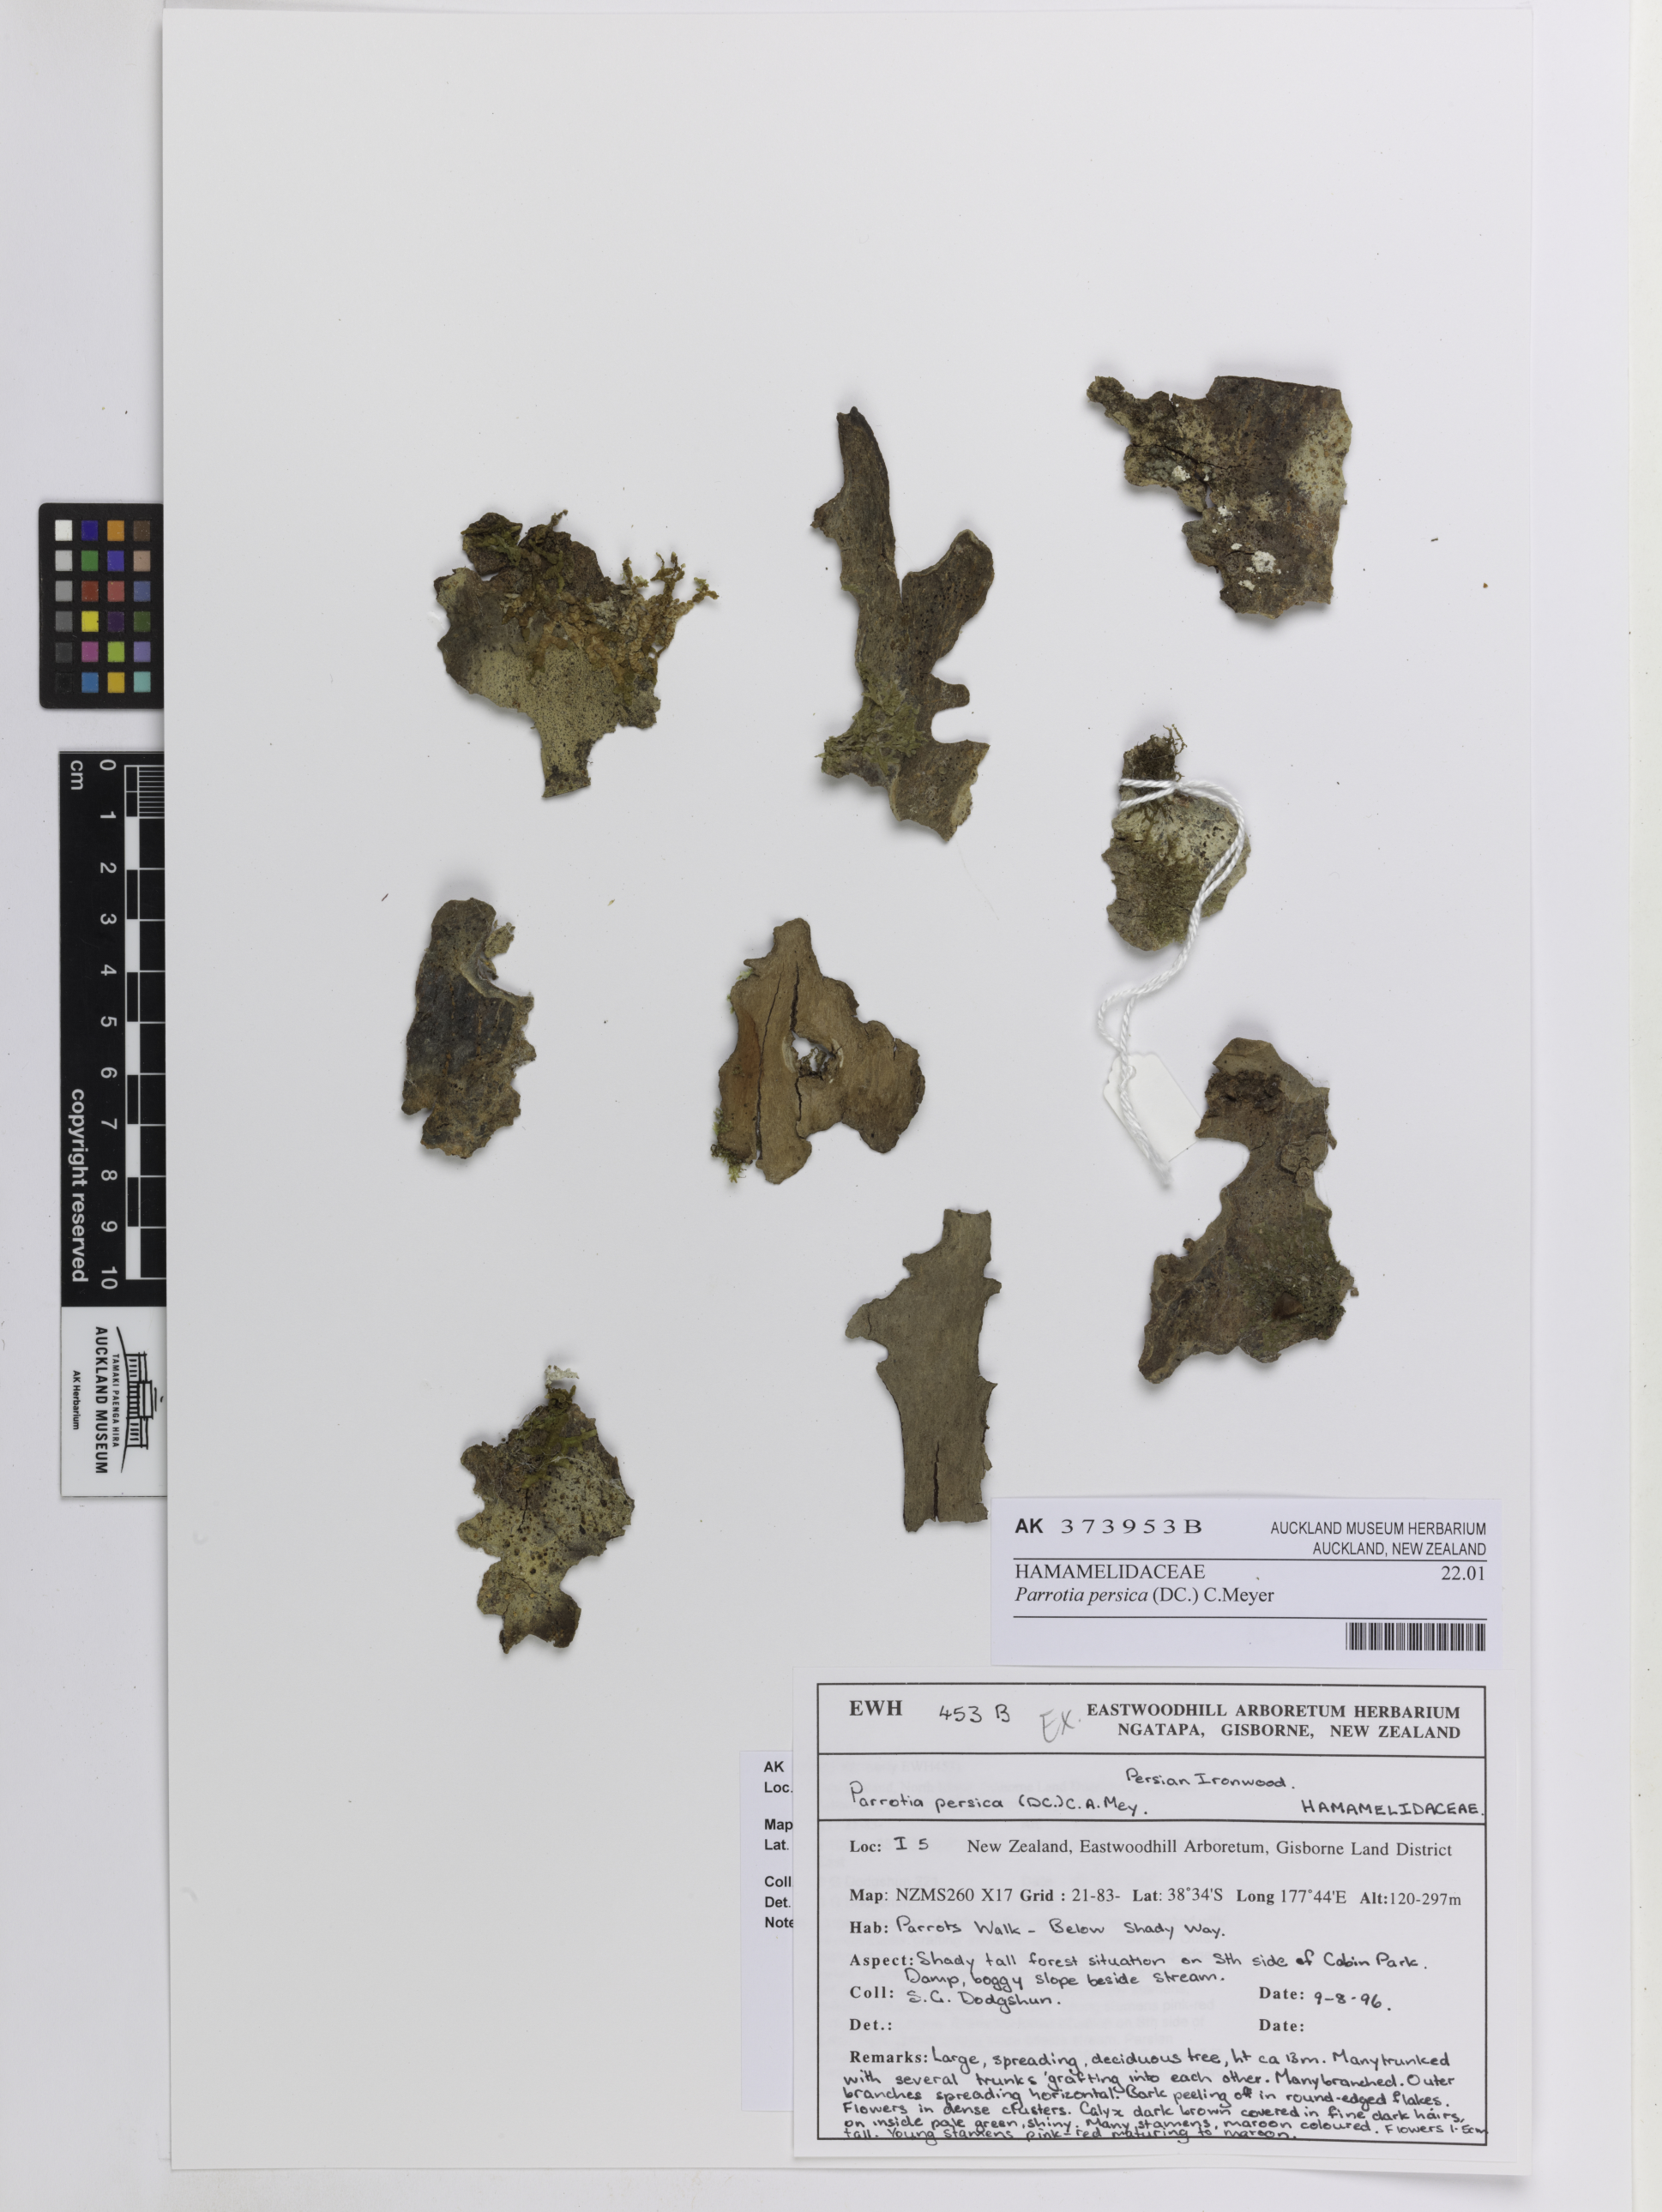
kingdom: Plantae
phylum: Tracheophyta
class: Magnoliopsida
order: Saxifragales
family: Hamamelidaceae
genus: Parrotia
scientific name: Parrotia persica
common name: Persian ironwood
